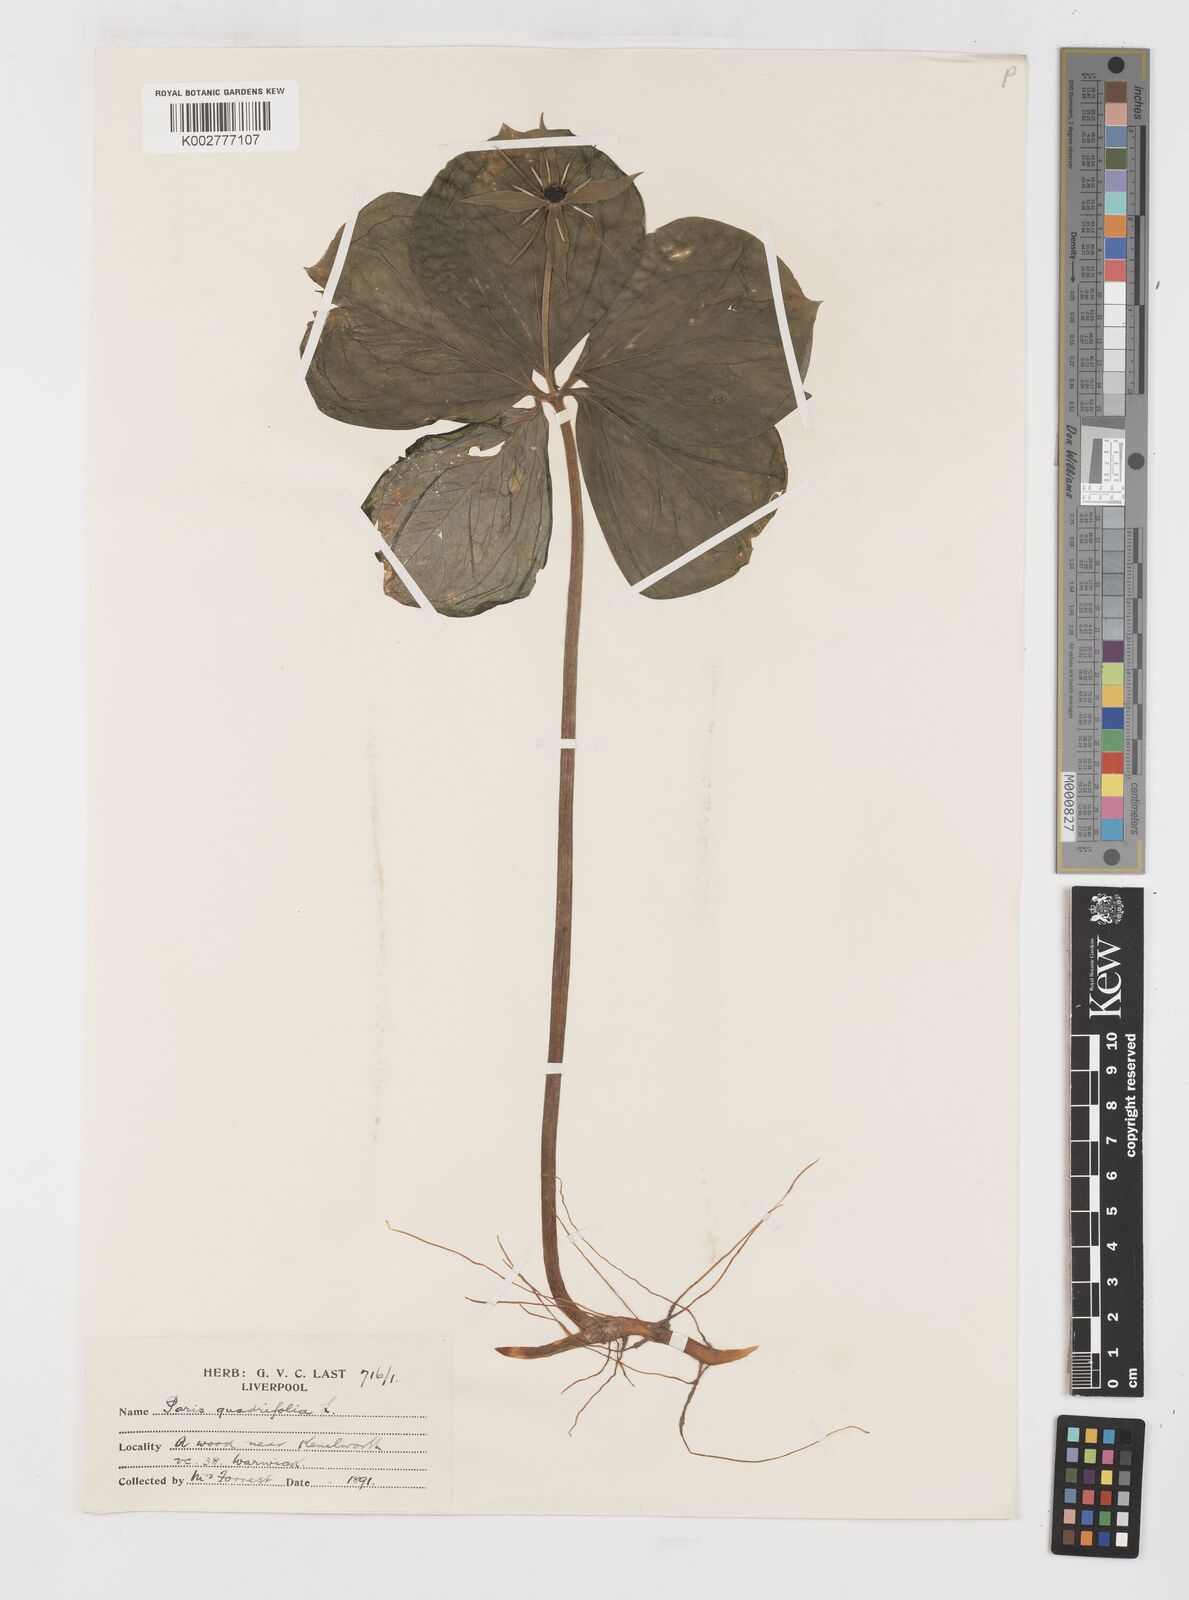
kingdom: Plantae
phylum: Tracheophyta
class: Liliopsida
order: Liliales
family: Melanthiaceae
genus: Paris
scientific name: Paris quadrifolia
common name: Herb-paris
